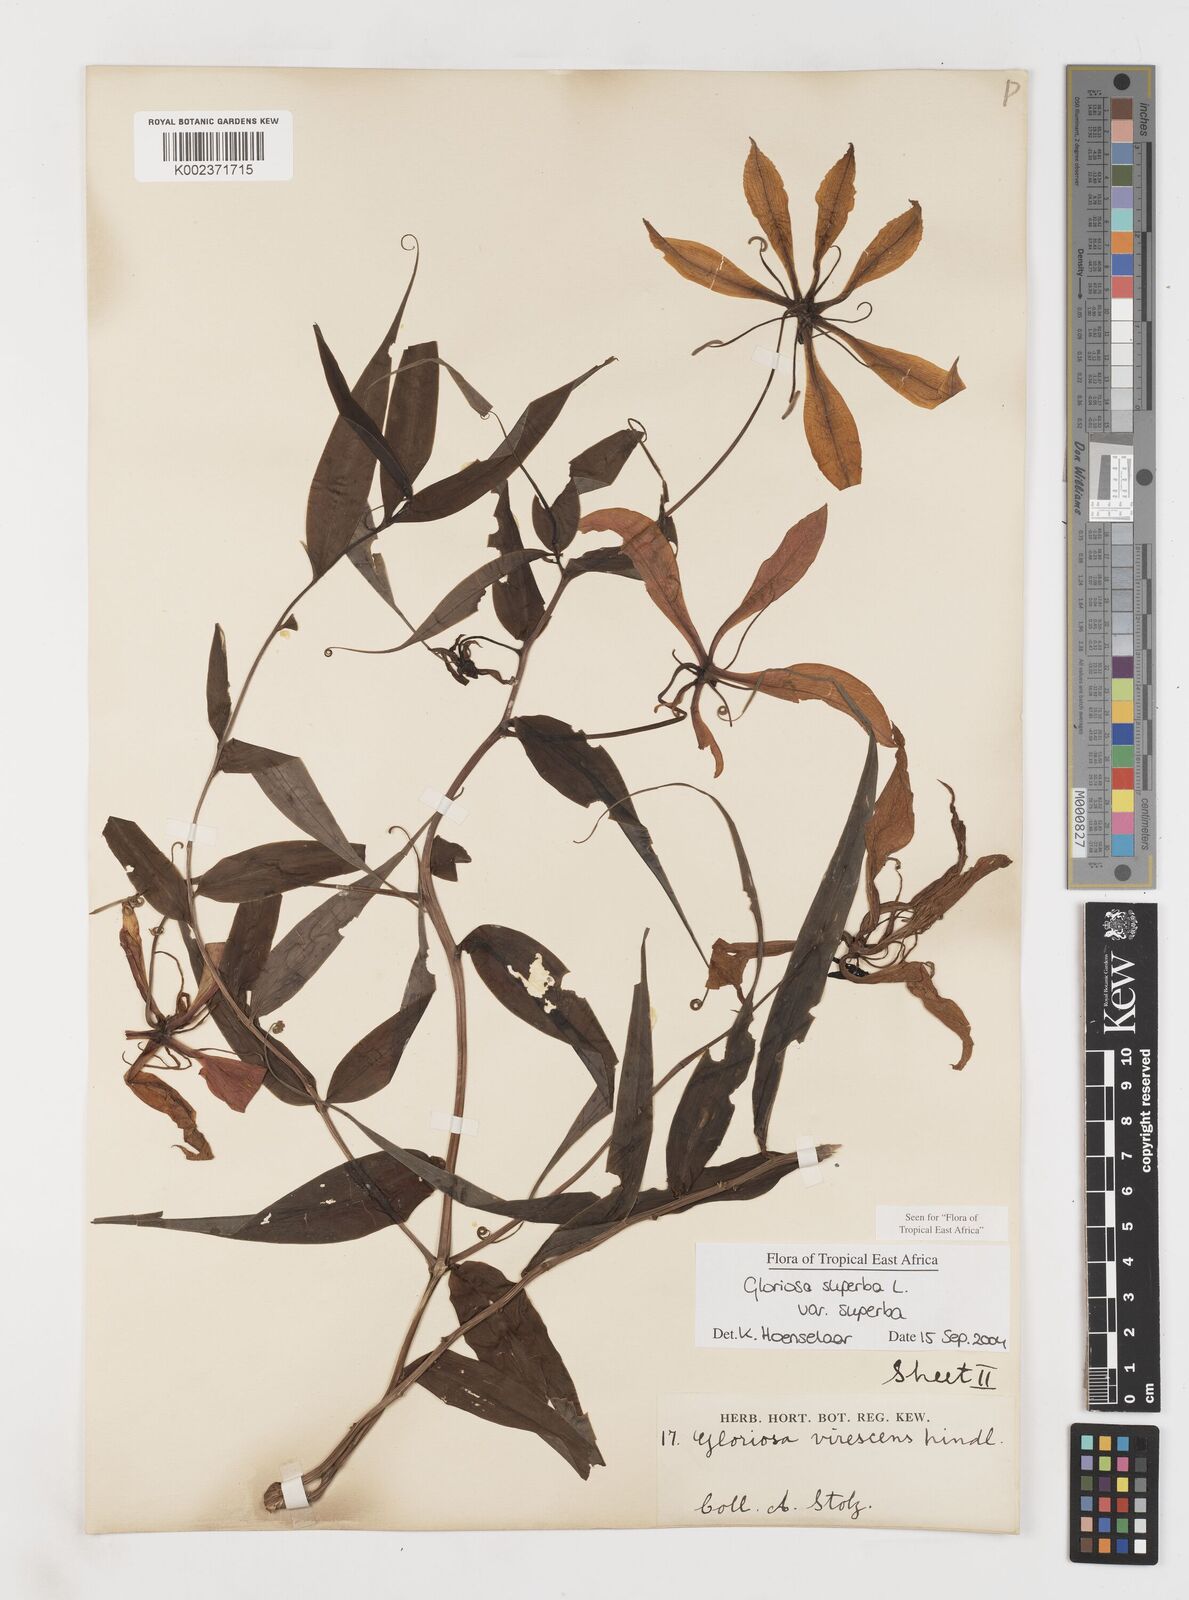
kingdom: Plantae
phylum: Tracheophyta
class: Liliopsida
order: Liliales
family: Colchicaceae
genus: Gloriosa
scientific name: Gloriosa simplex
